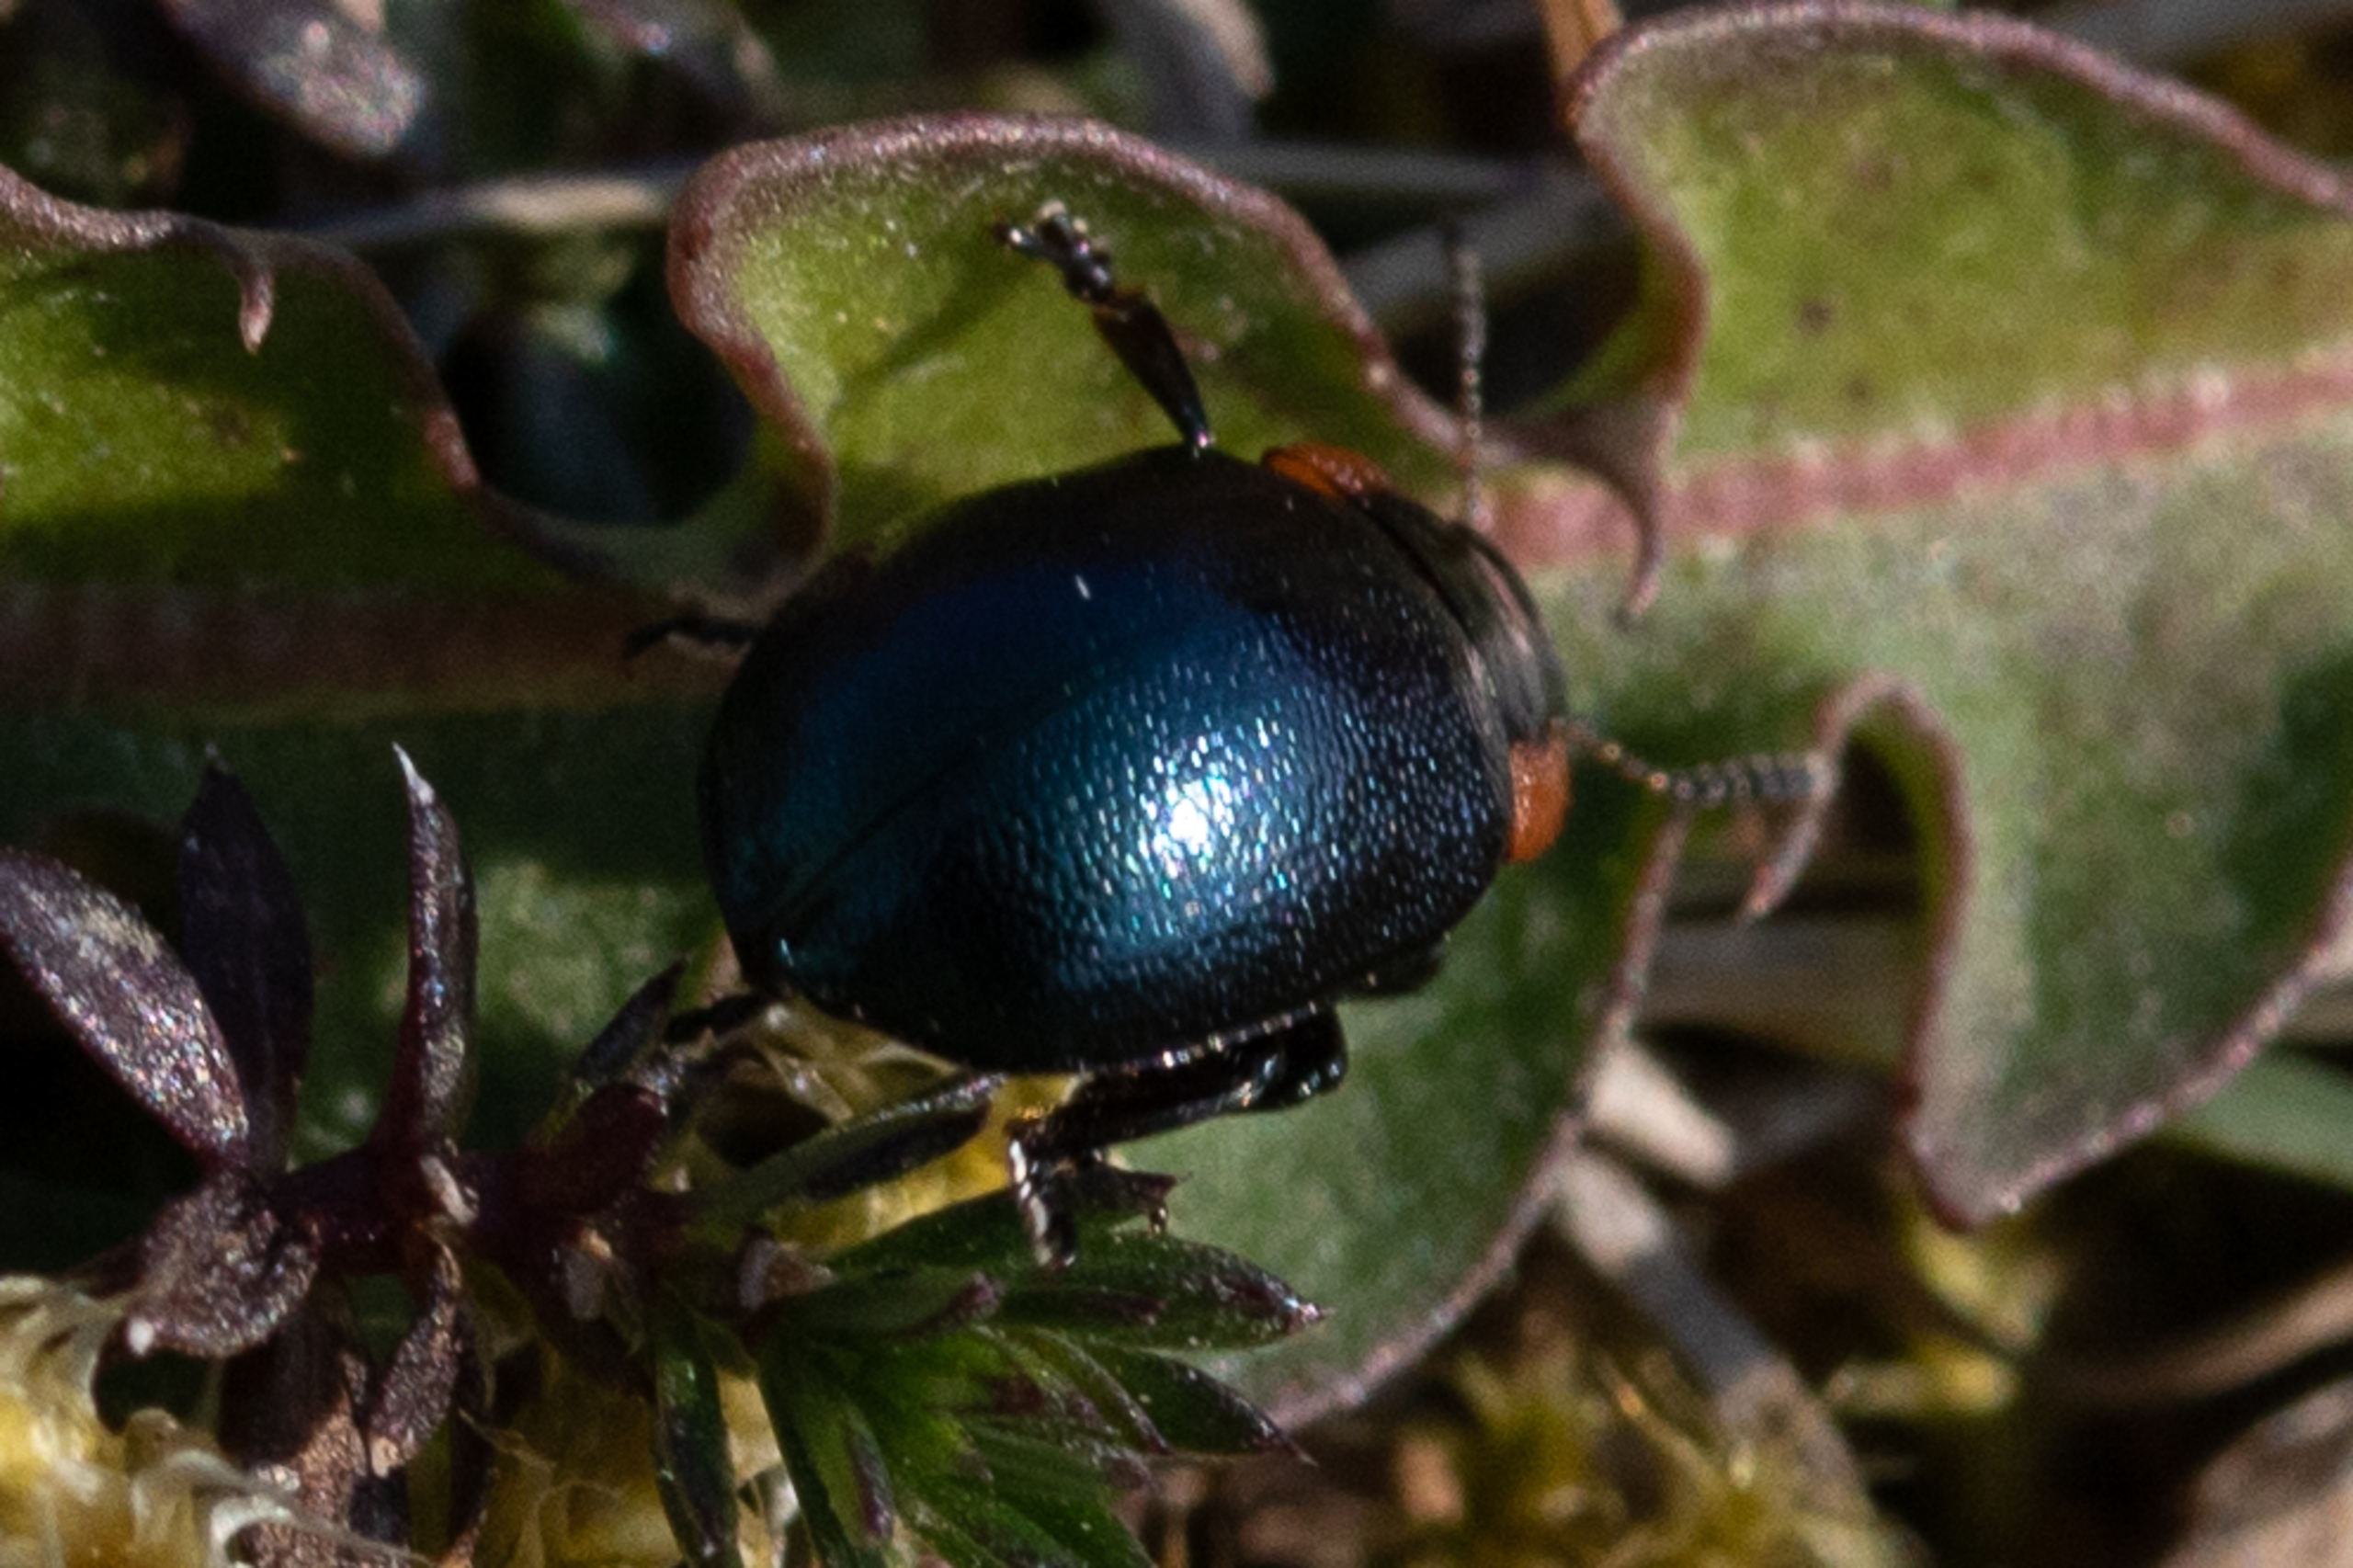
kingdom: Animalia
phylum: Arthropoda
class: Insecta
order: Coleoptera
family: Chrysomelidae
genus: Chrysomela
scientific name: Chrysomela collaris
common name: Klitbladbille
